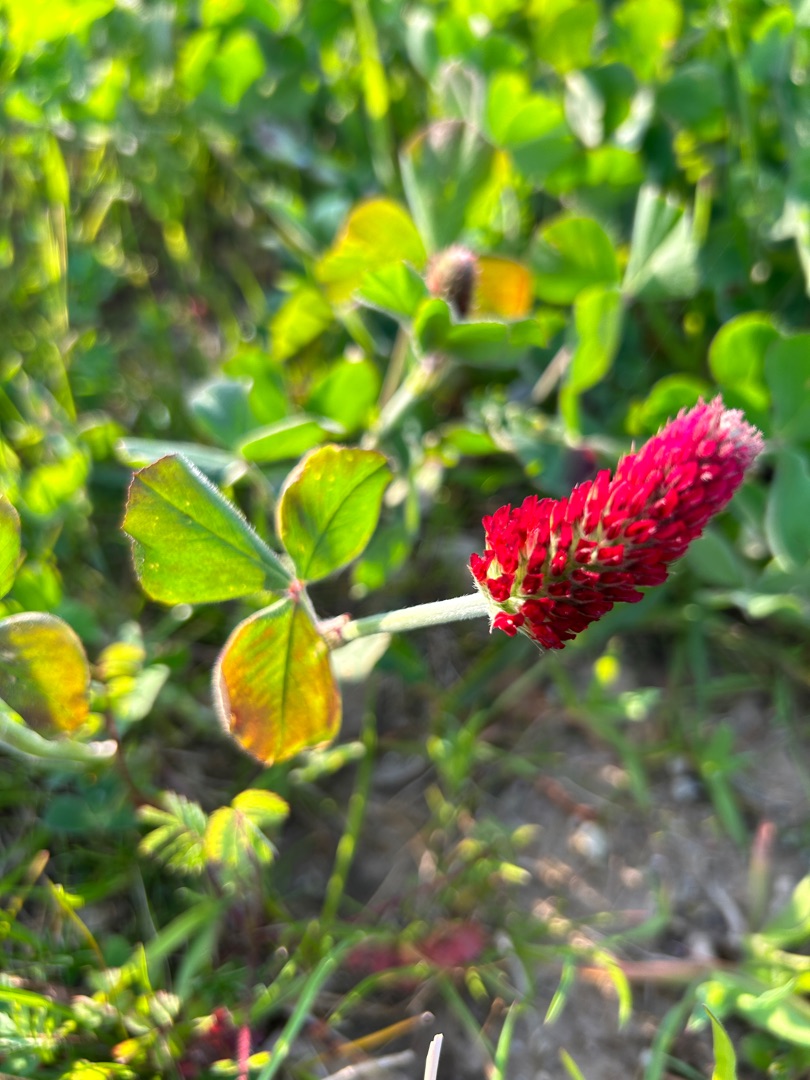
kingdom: Plantae
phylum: Tracheophyta
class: Magnoliopsida
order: Fabales
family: Fabaceae
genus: Trifolium
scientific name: Trifolium incarnatum
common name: Blod-kløver
